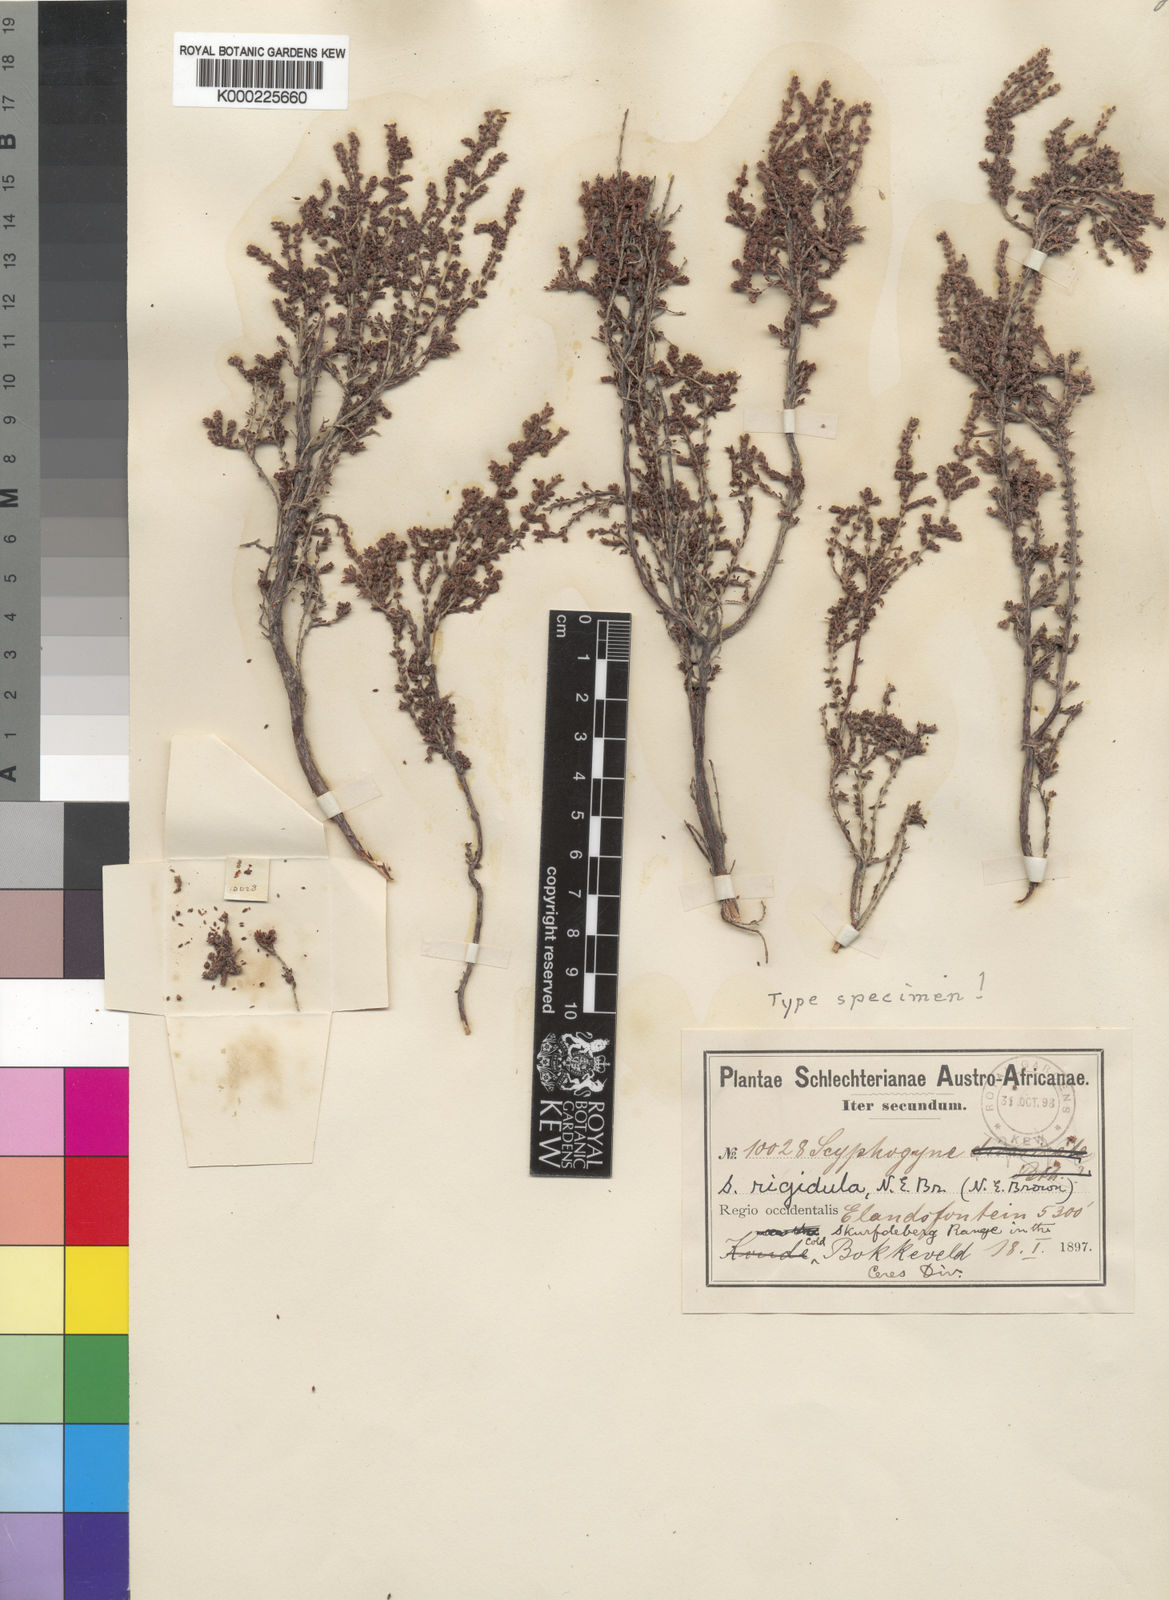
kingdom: Plantae
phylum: Tracheophyta
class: Magnoliopsida
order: Ericales
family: Ericaceae
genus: Erica
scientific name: Erica rigidula
